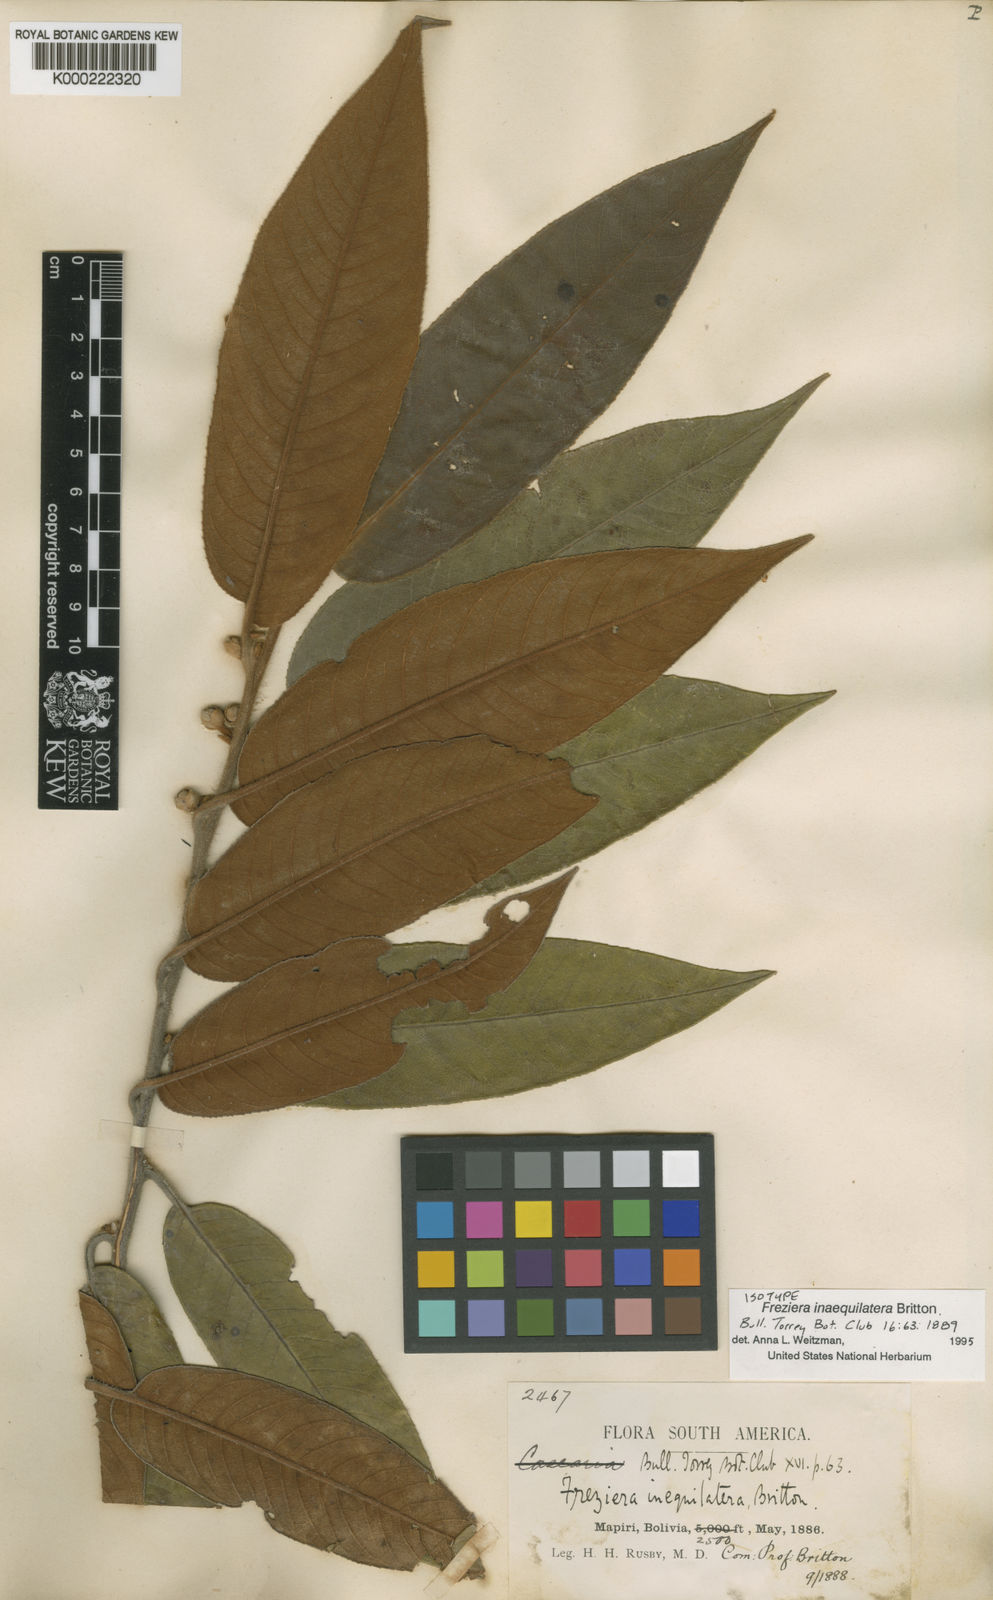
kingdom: Plantae
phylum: Tracheophyta
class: Magnoliopsida
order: Ericales
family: Pentaphylacaceae
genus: Freziera
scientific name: Freziera inaequilatera
